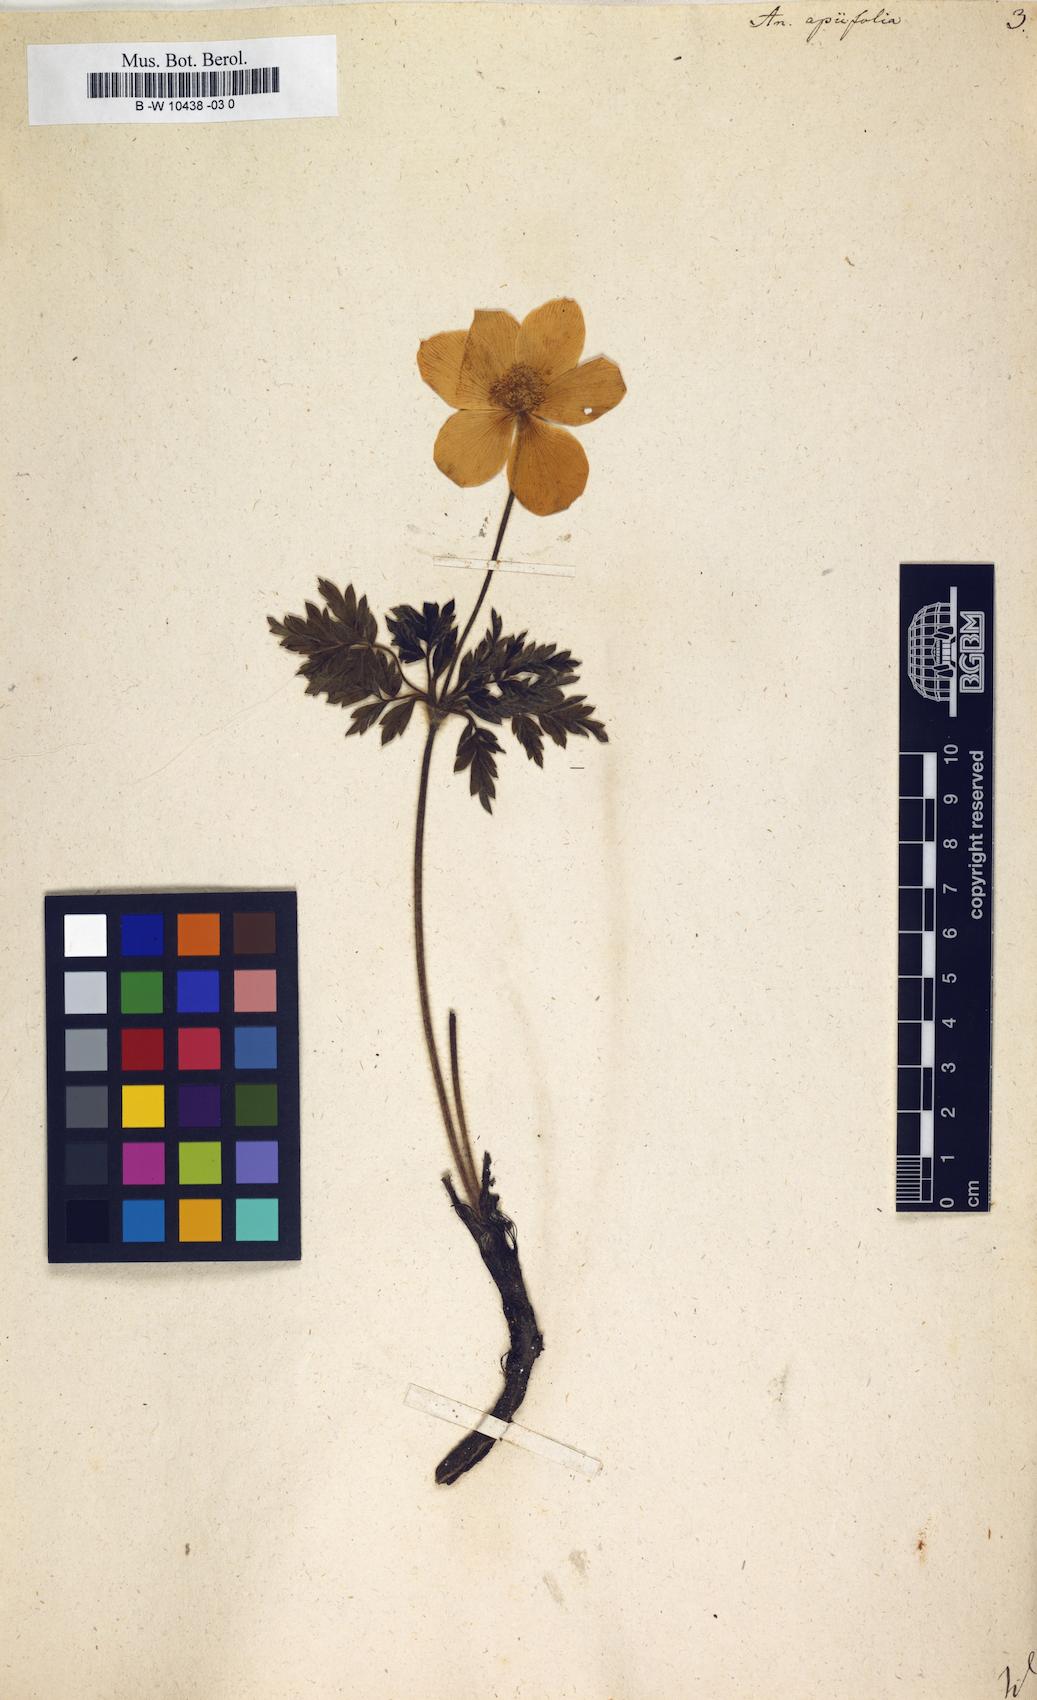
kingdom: Plantae
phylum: Tracheophyta
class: Magnoliopsida
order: Ranunculales
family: Ranunculaceae
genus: Pulsatilla
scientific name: Pulsatilla alpina
